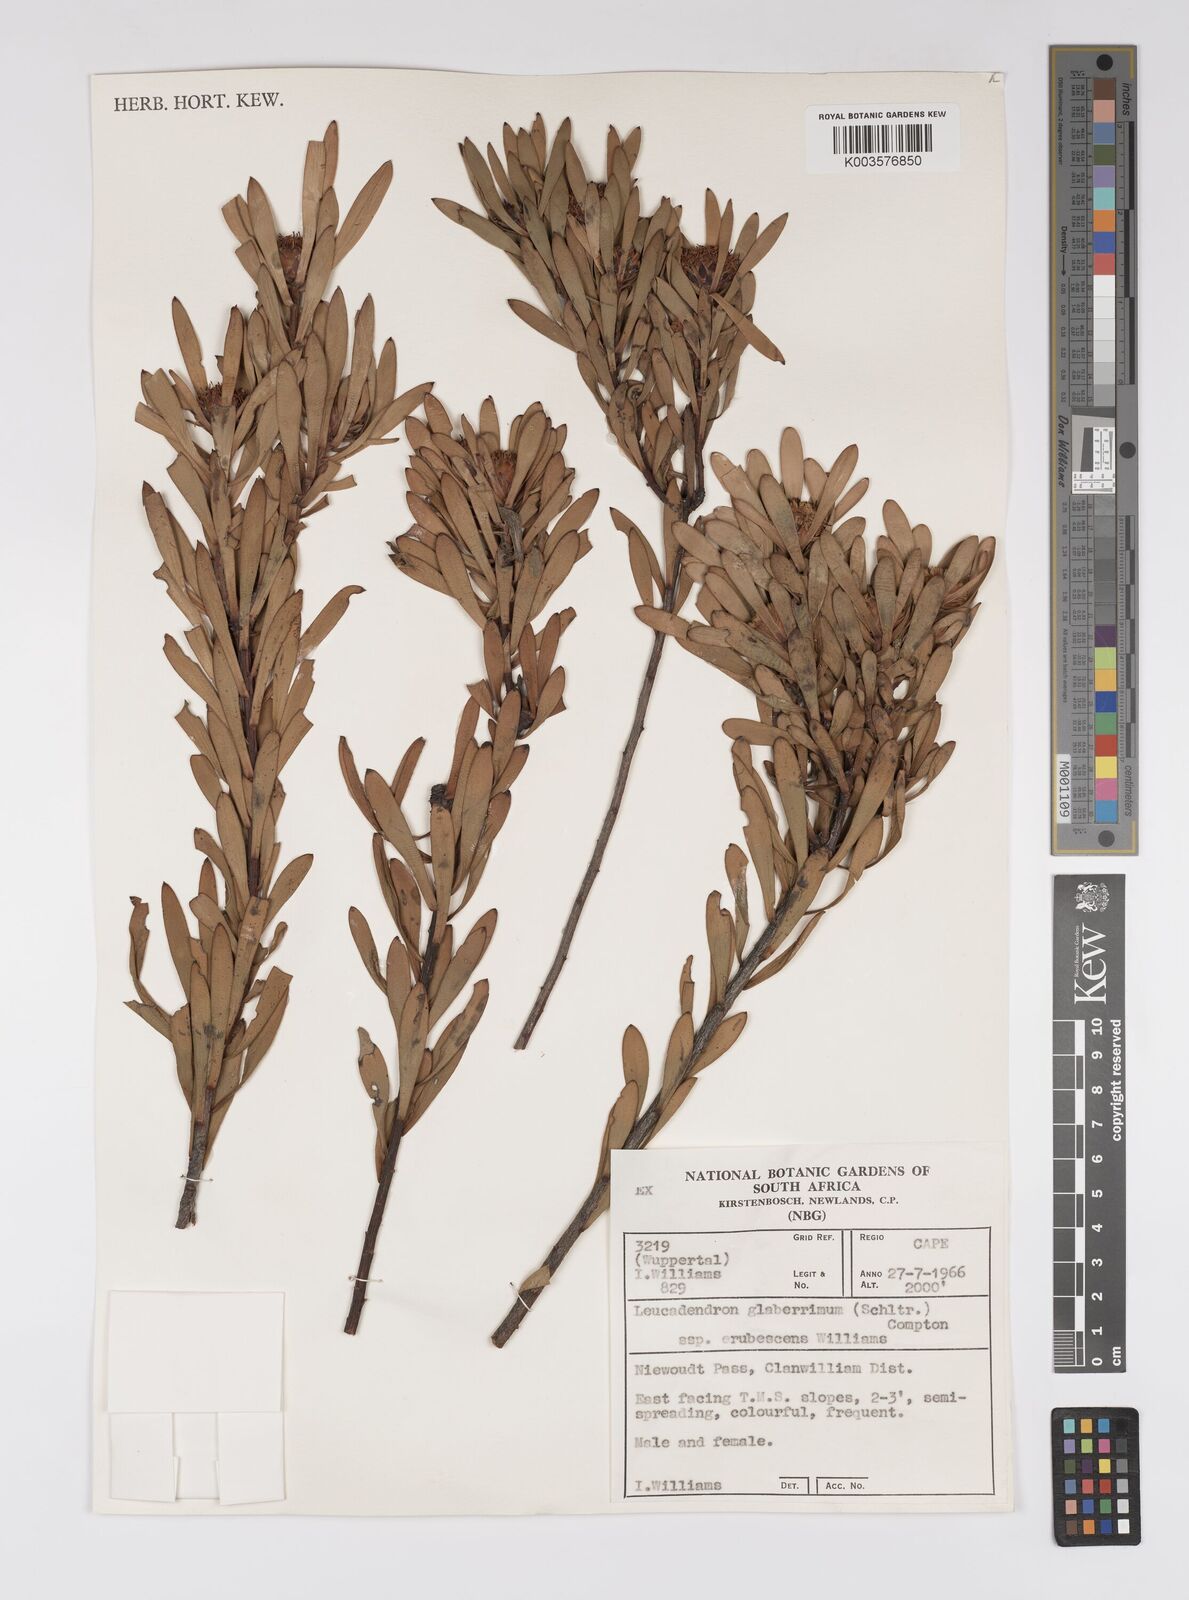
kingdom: Plantae
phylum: Tracheophyta
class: Magnoliopsida
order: Proteales
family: Proteaceae
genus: Leucadendron
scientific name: Leucadendron glaberrimum
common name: Common oily conebush
